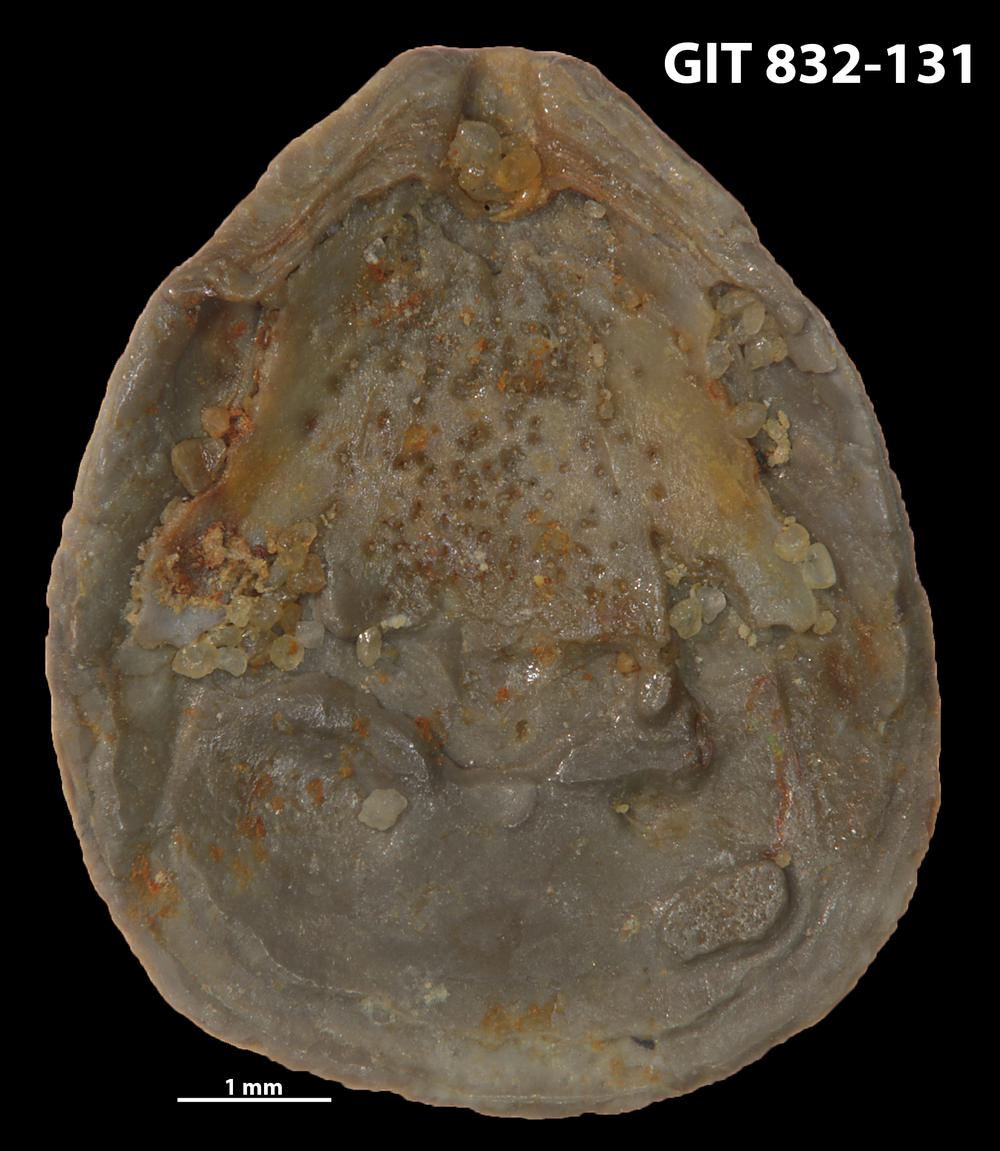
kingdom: Animalia
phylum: Brachiopoda
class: Lingulata
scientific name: Lingulata
